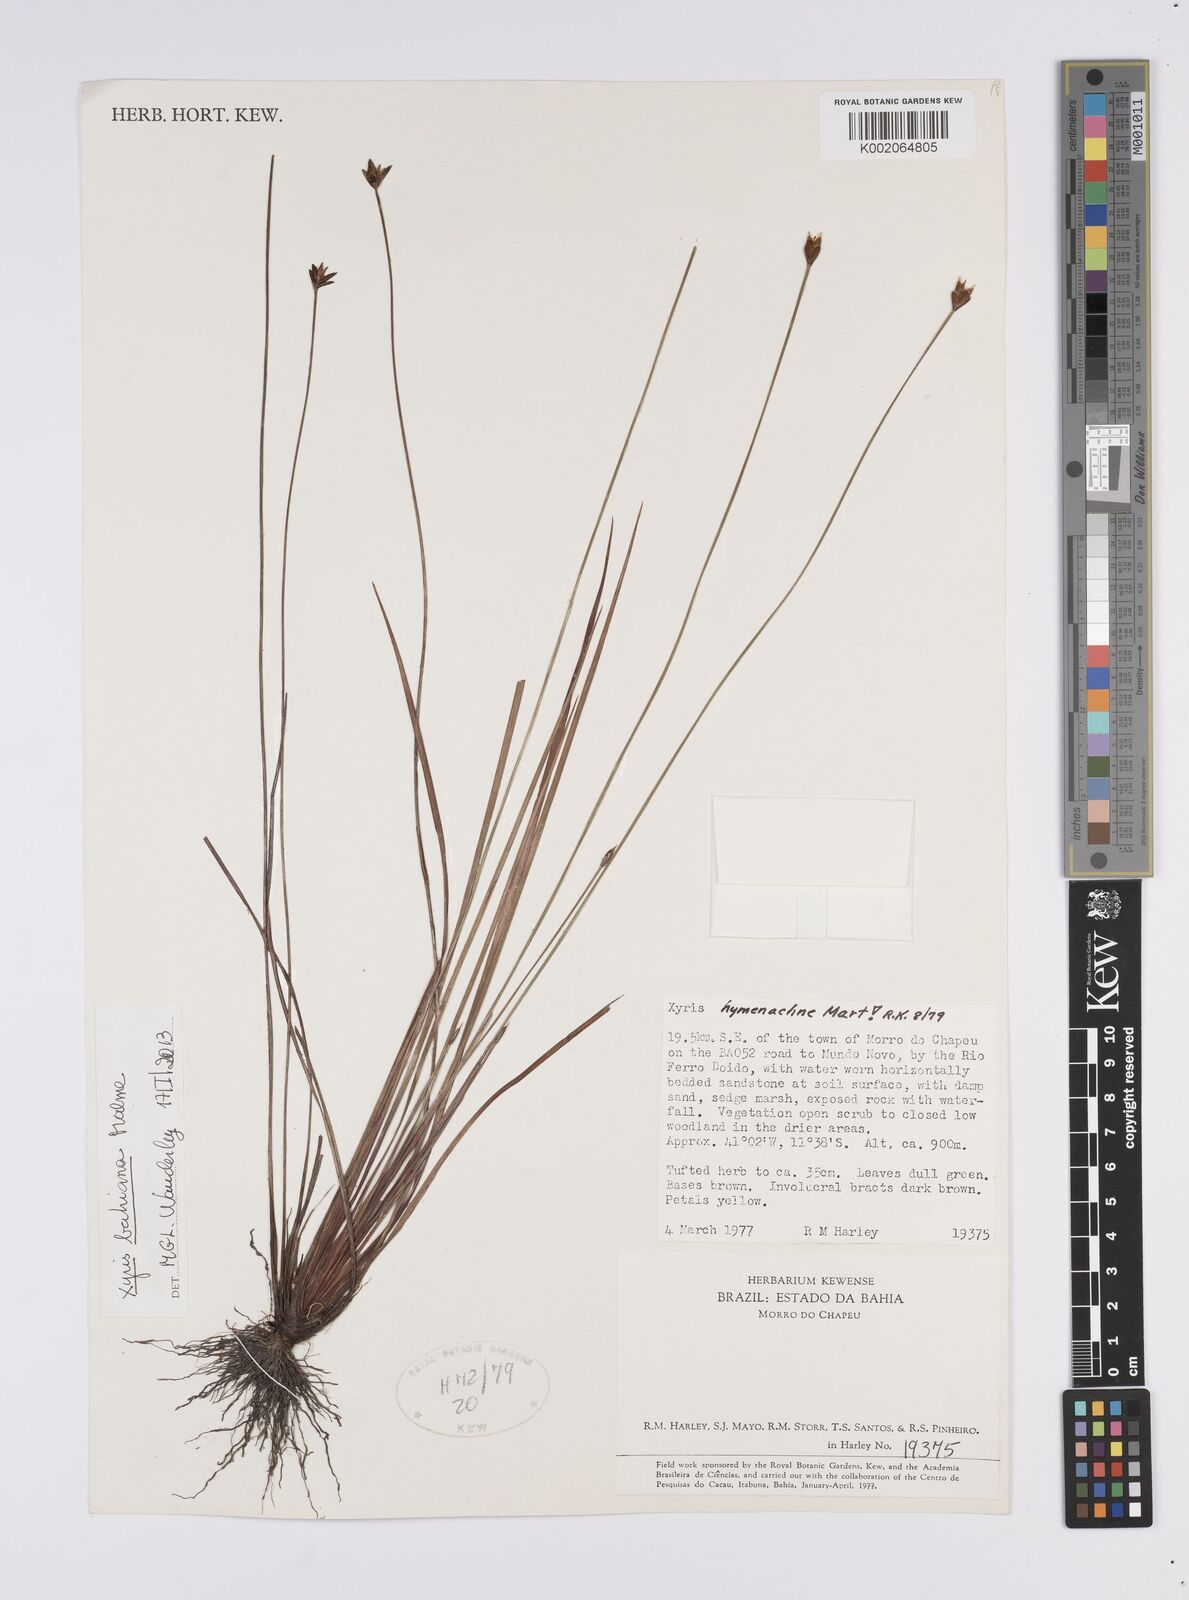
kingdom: Plantae
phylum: Tracheophyta
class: Liliopsida
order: Poales
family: Xyridaceae
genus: Xyris
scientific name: Xyris bahiana
